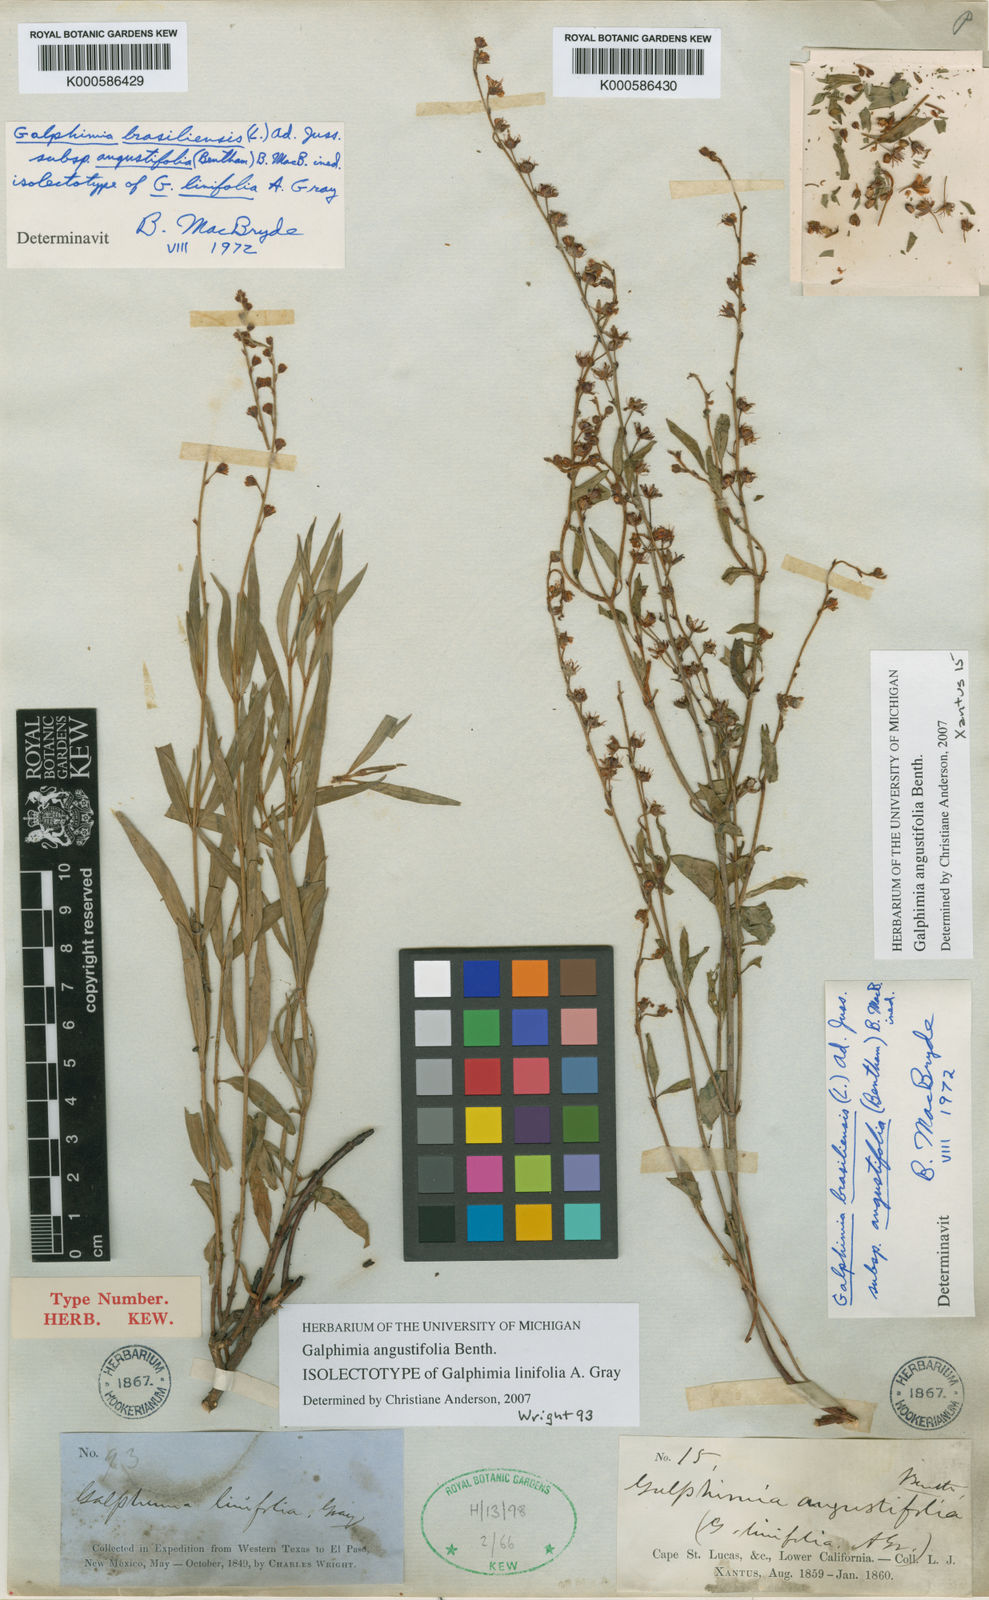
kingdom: Plantae
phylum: Tracheophyta
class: Magnoliopsida
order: Malpighiales
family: Malpighiaceae
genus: Galphimia
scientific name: Galphimia angustifolia
